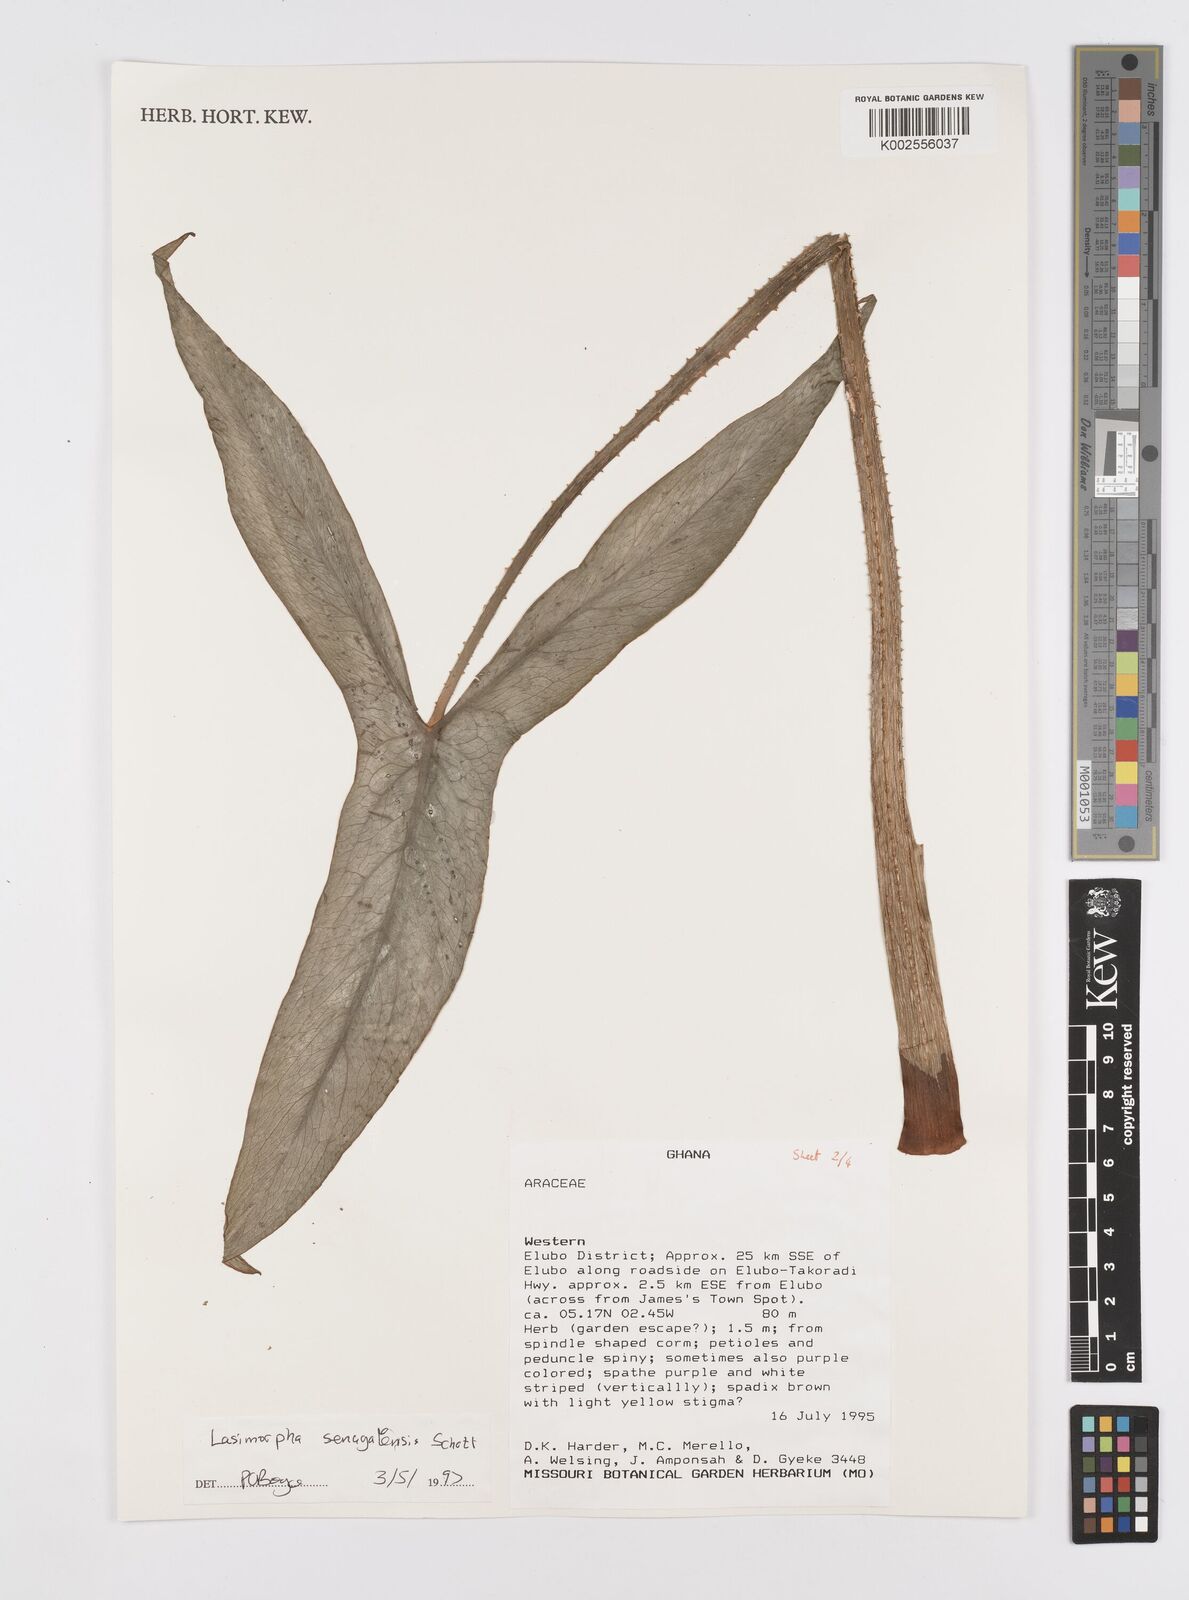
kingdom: Plantae
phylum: Tracheophyta
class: Liliopsida
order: Alismatales
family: Araceae
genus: Lasimorpha
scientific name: Lasimorpha senegalensis
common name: Swamp arum
